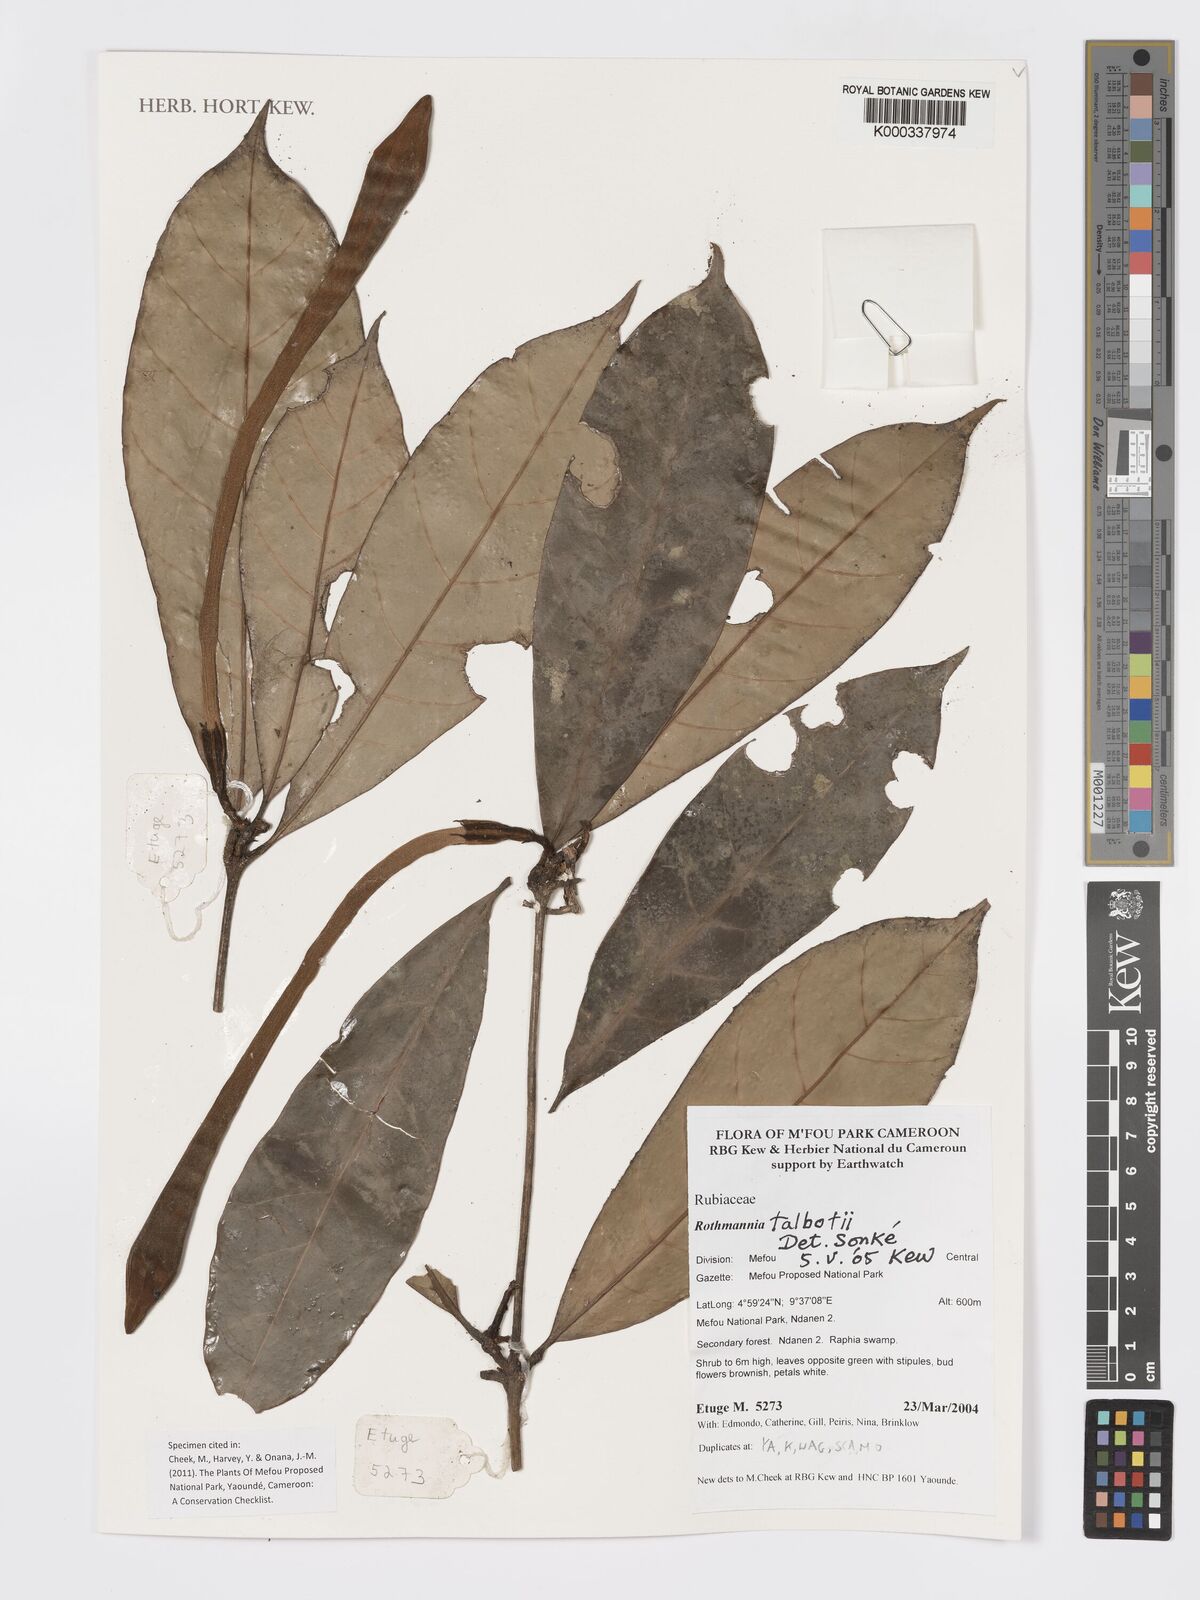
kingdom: Plantae
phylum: Tracheophyta
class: Magnoliopsida
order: Gentianales
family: Rubiaceae
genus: Rothmannia
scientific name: Rothmannia talbotii
